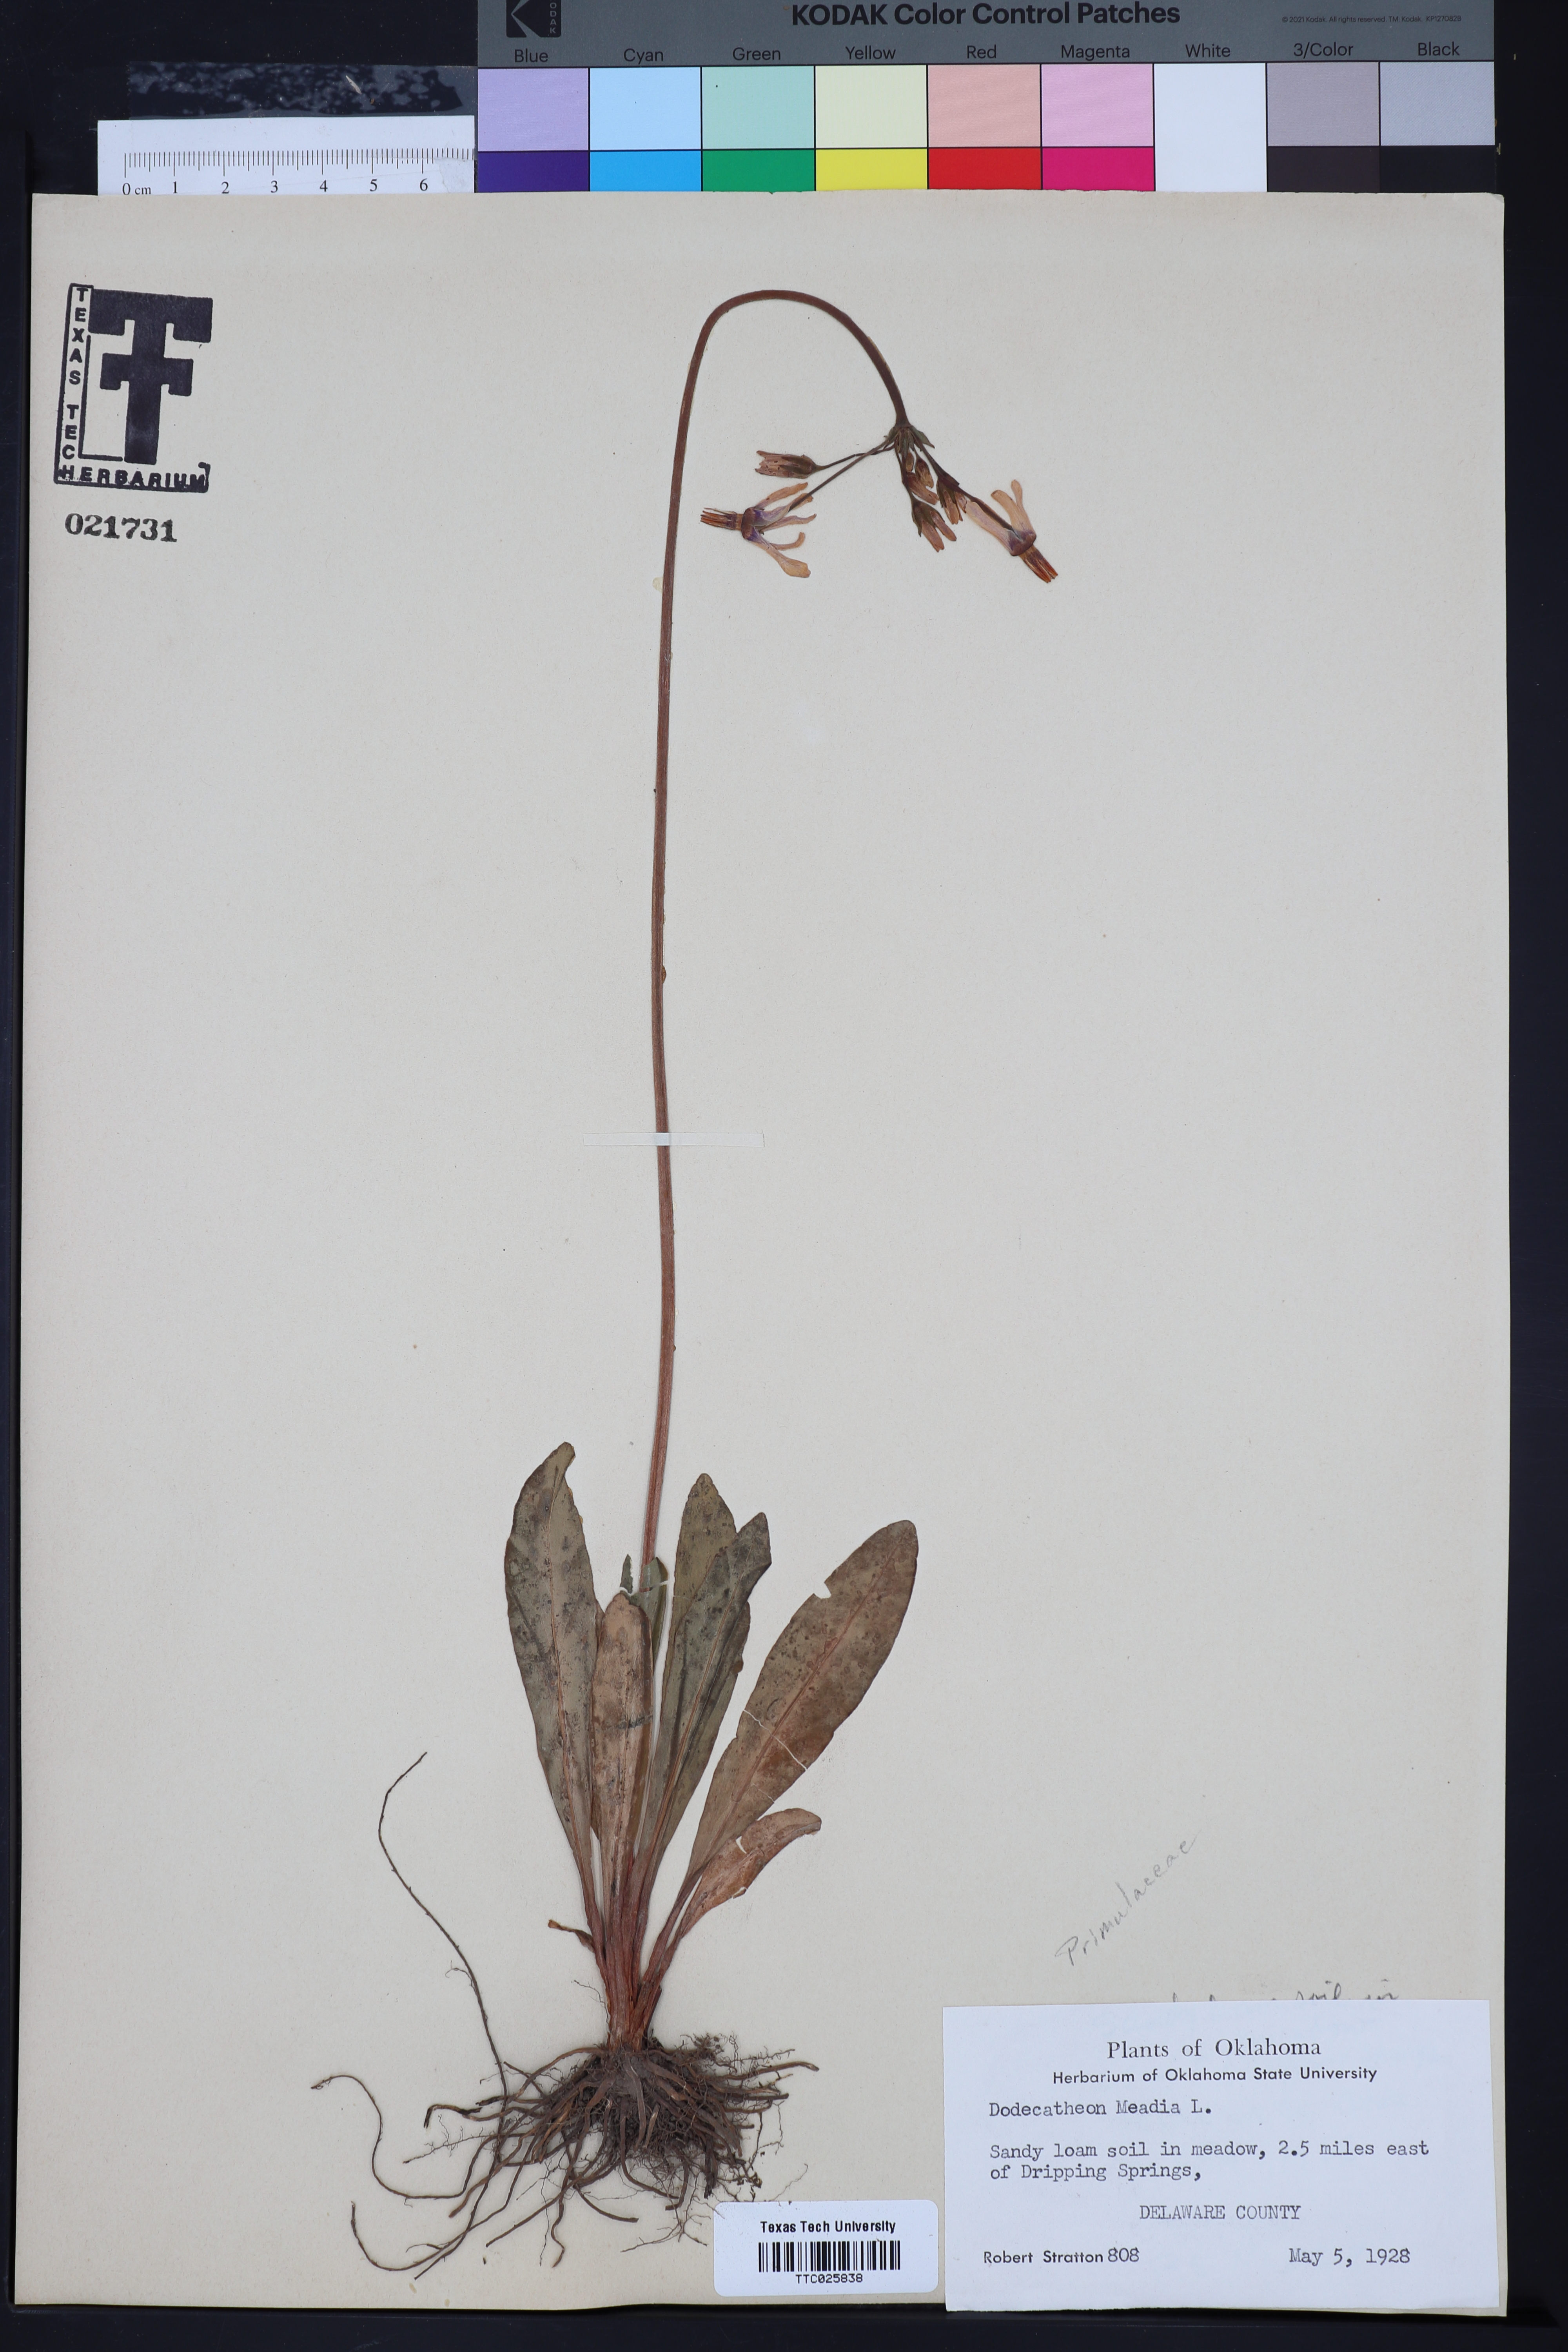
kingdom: Plantae
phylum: Tracheophyta
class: Magnoliopsida
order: Ericales
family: Primulaceae
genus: Dodecatheon
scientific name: Dodecatheon meadia
